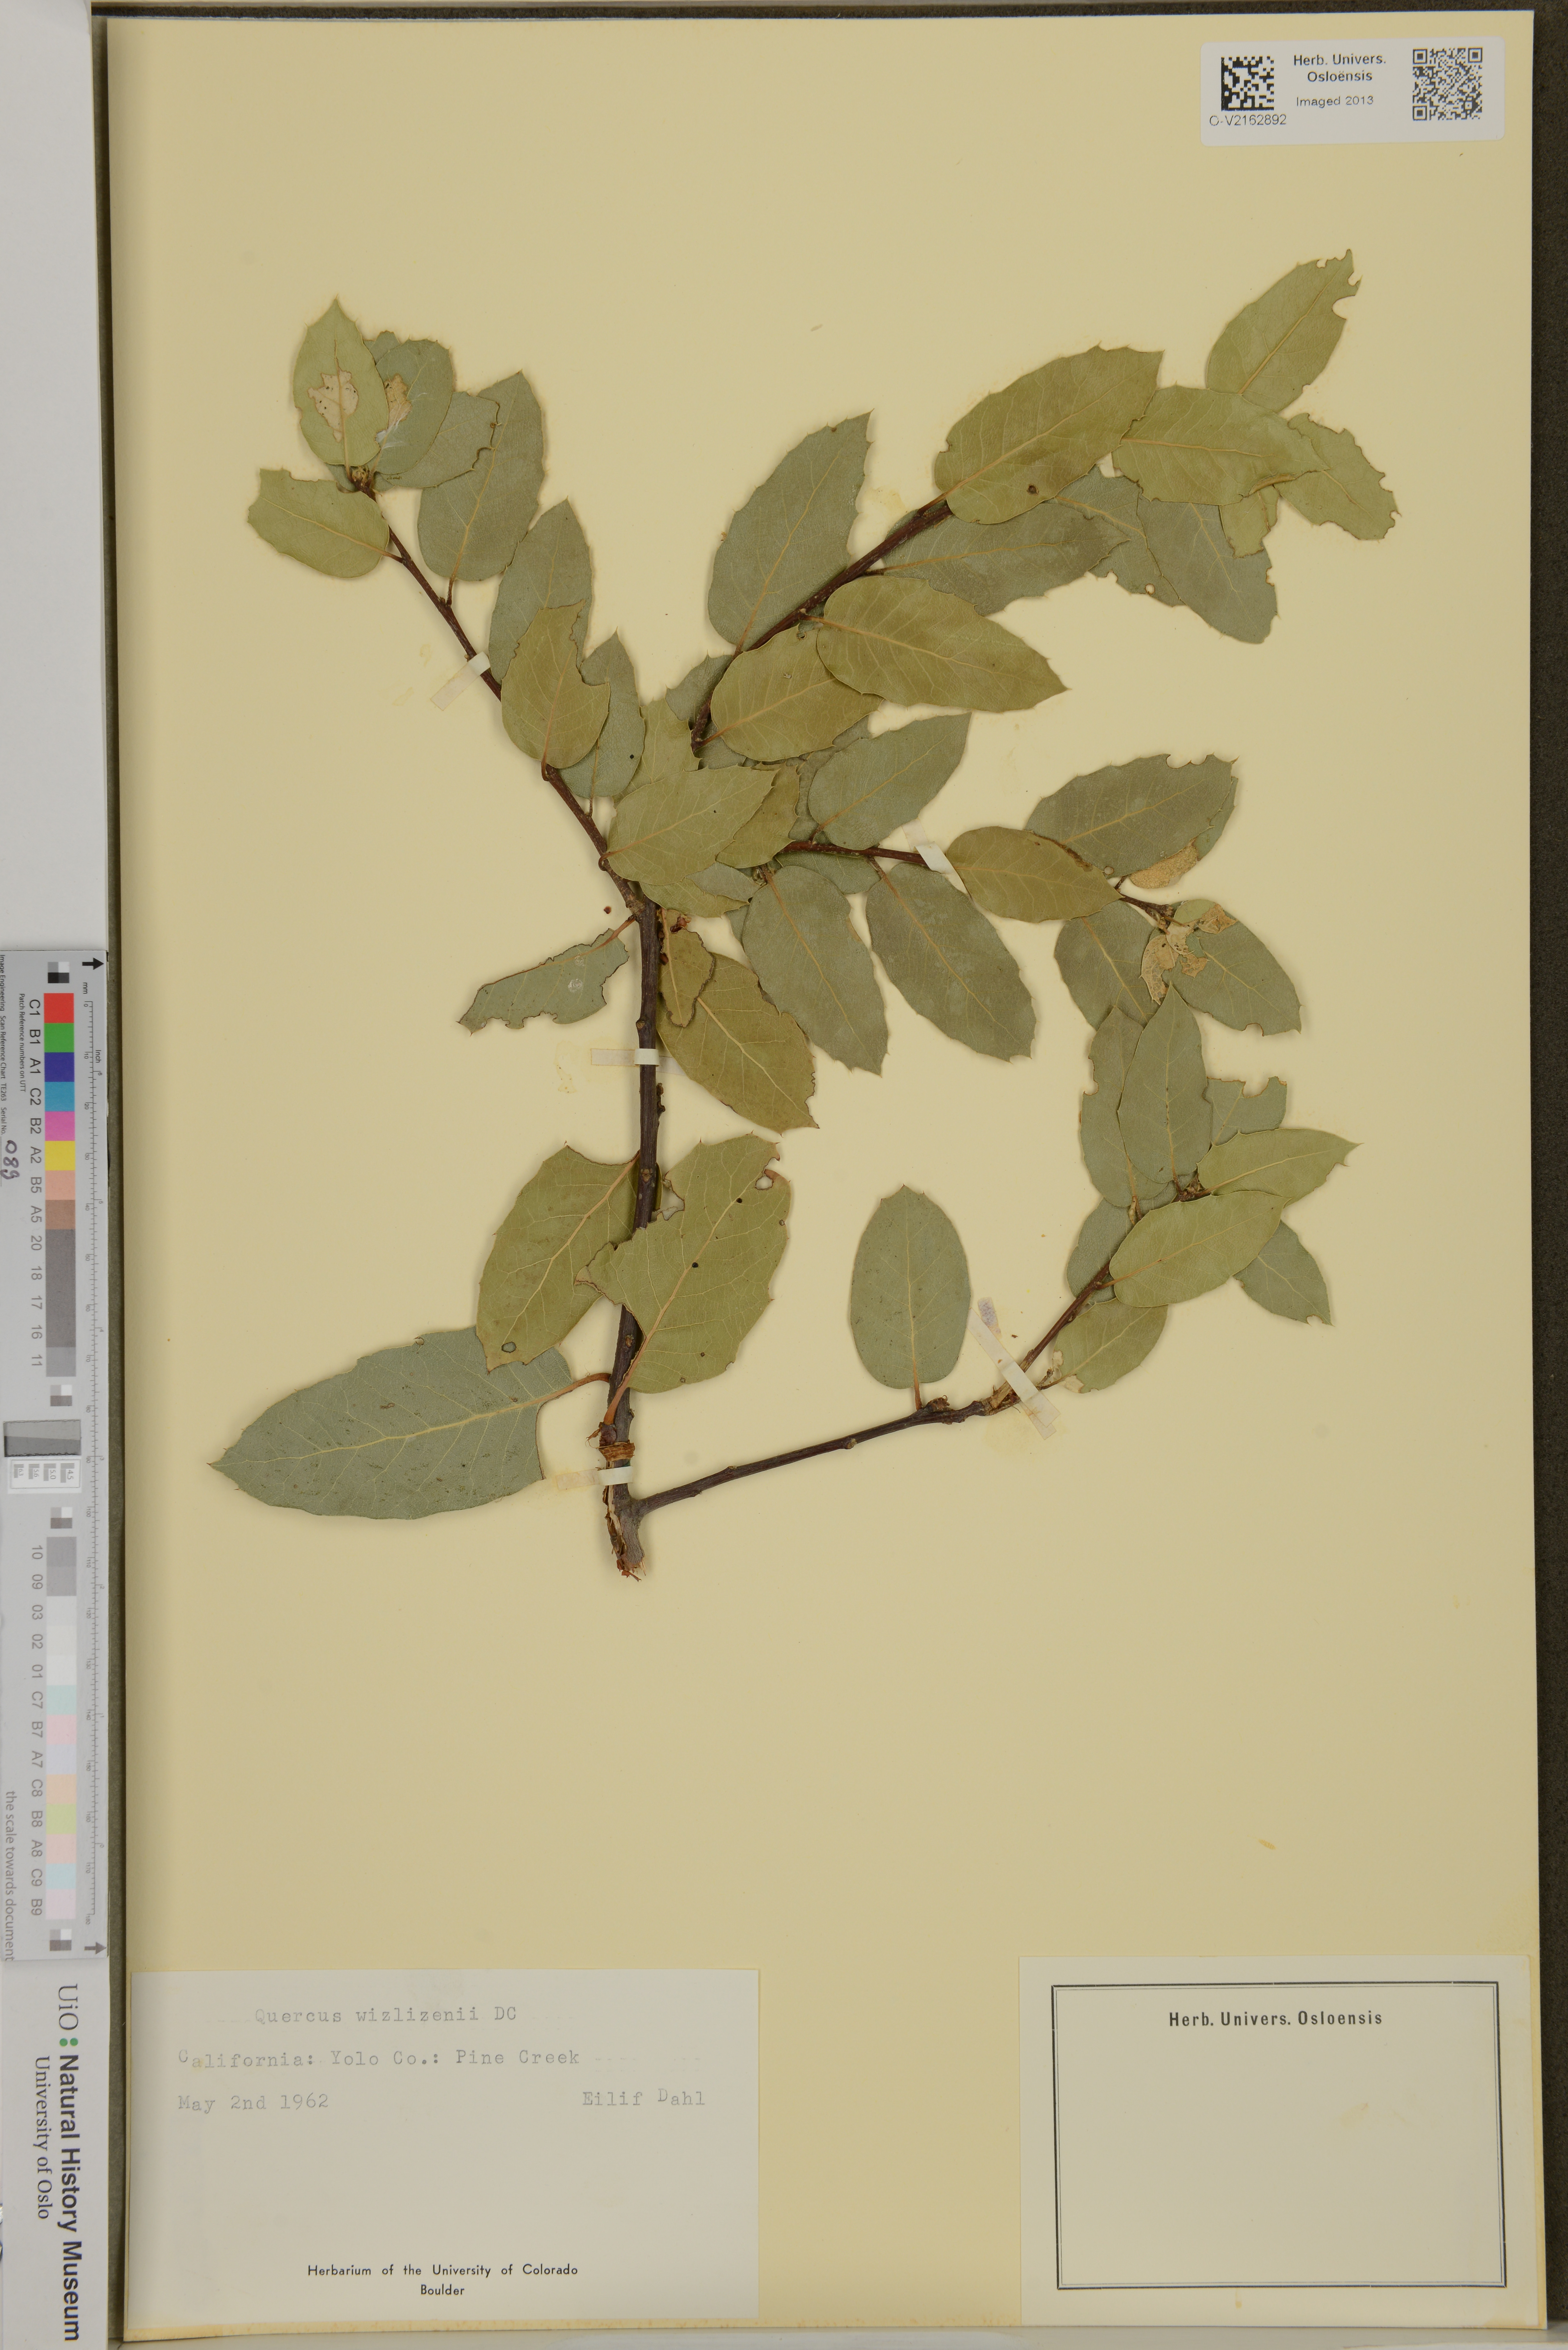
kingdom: Plantae
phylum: Tracheophyta
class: Magnoliopsida
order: Fagales
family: Fagaceae
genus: Quercus
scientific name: Quercus wislizeni
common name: Interior live oak
